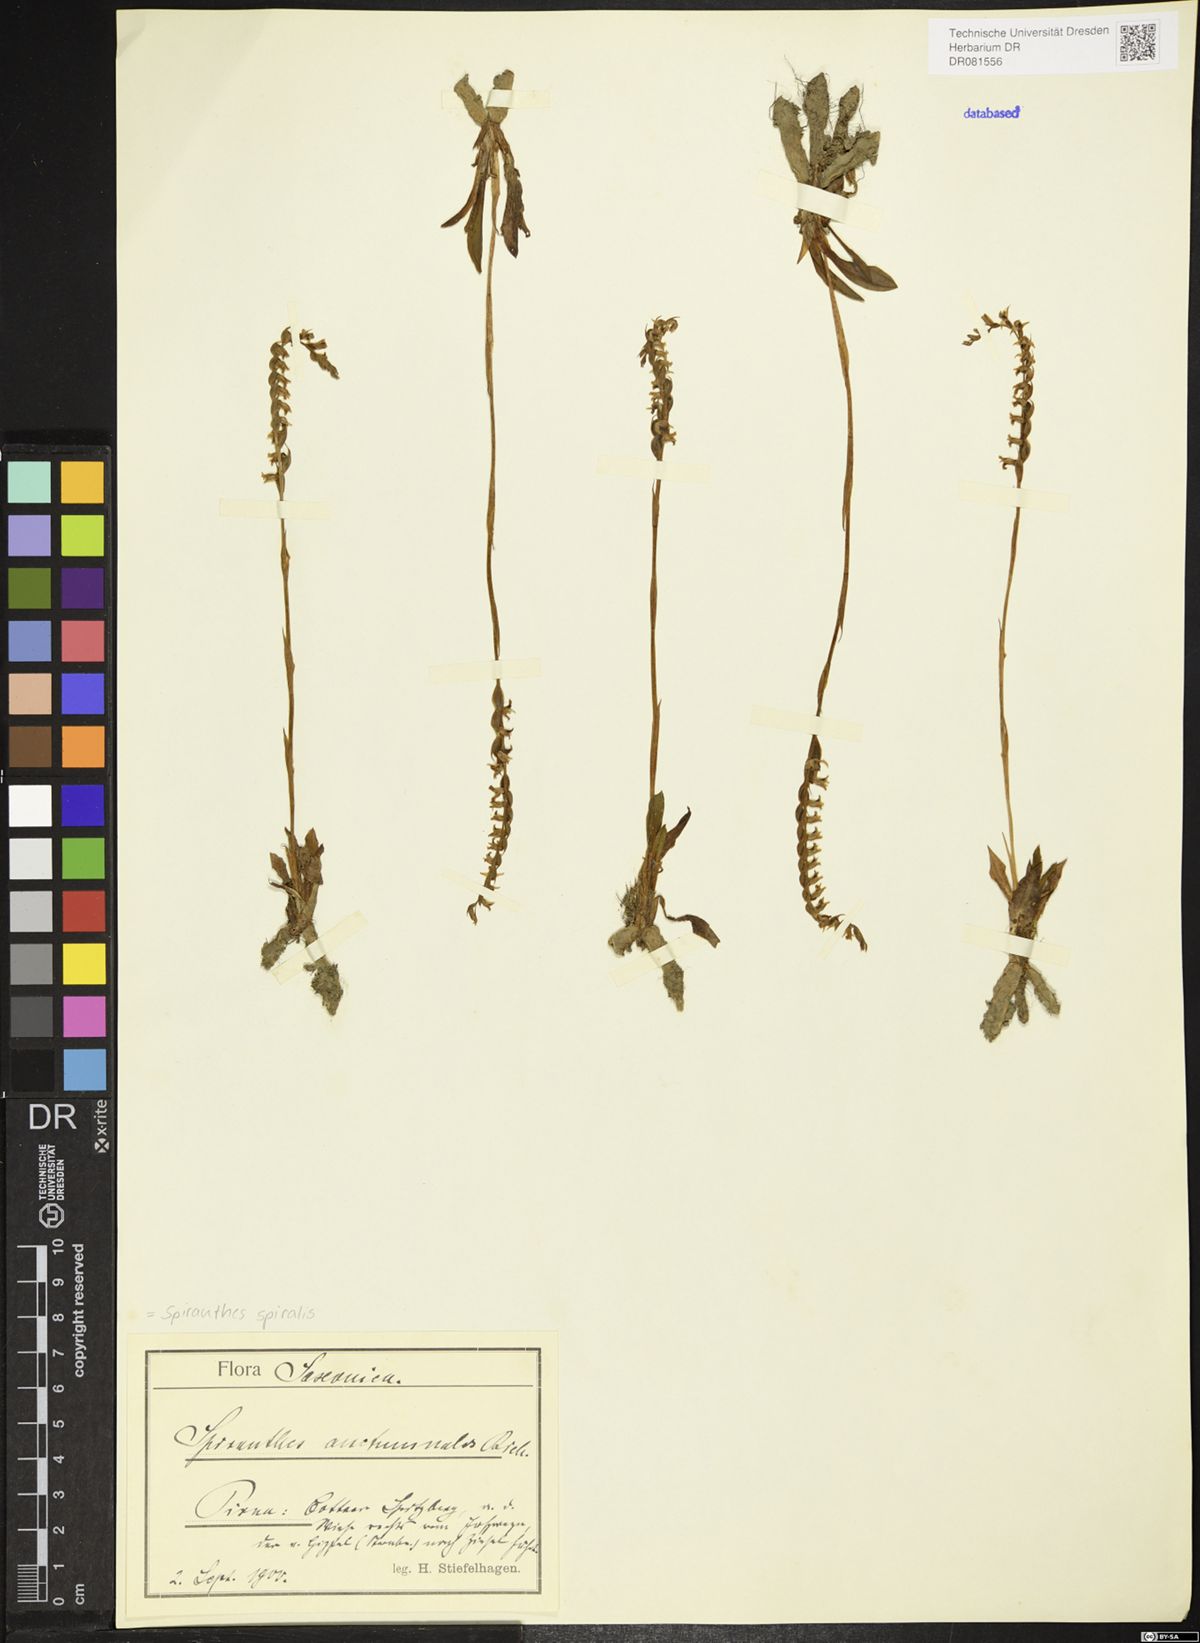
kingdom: Plantae
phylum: Tracheophyta
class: Liliopsida
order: Asparagales
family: Orchidaceae
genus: Spiranthes
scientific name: Spiranthes spiralis
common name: Autumn lady's-tresses
